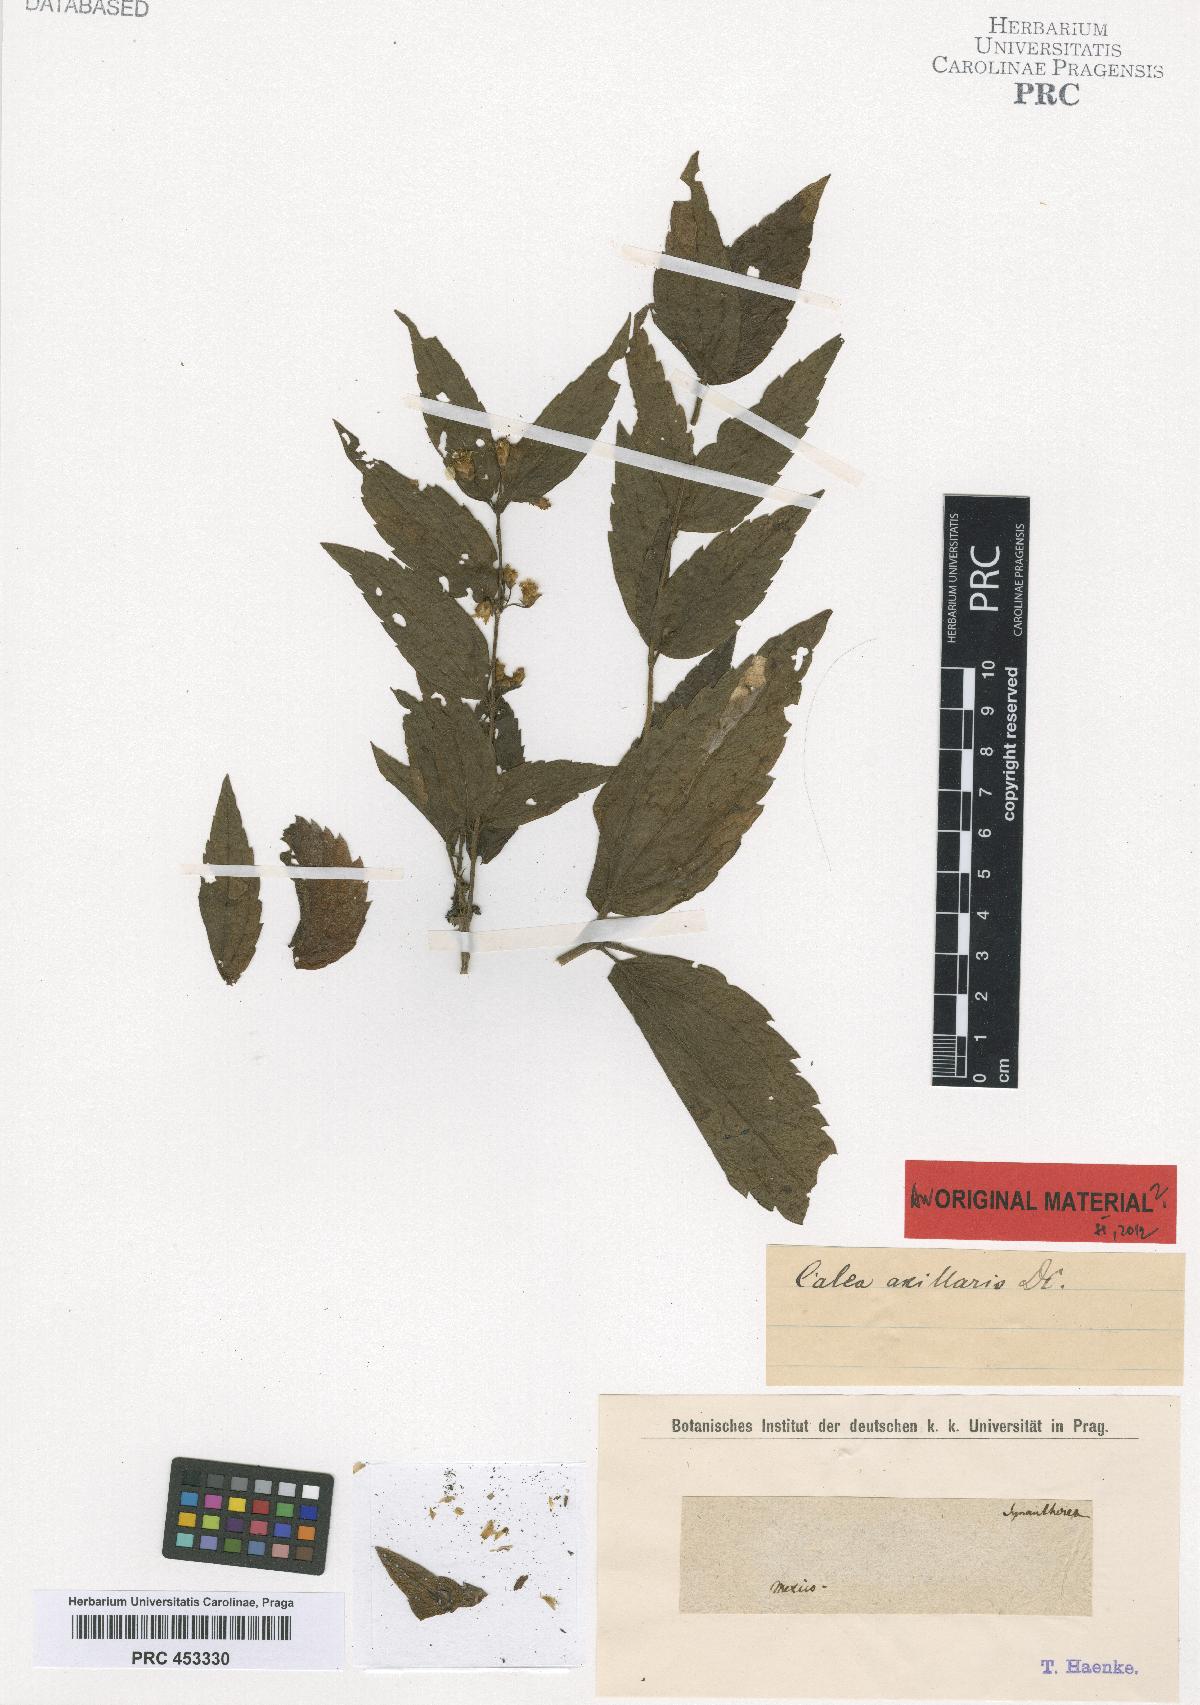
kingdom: Plantae
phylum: Tracheophyta
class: Magnoliopsida
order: Asterales
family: Asteraceae
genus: Calea
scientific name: Calea urticifolia
